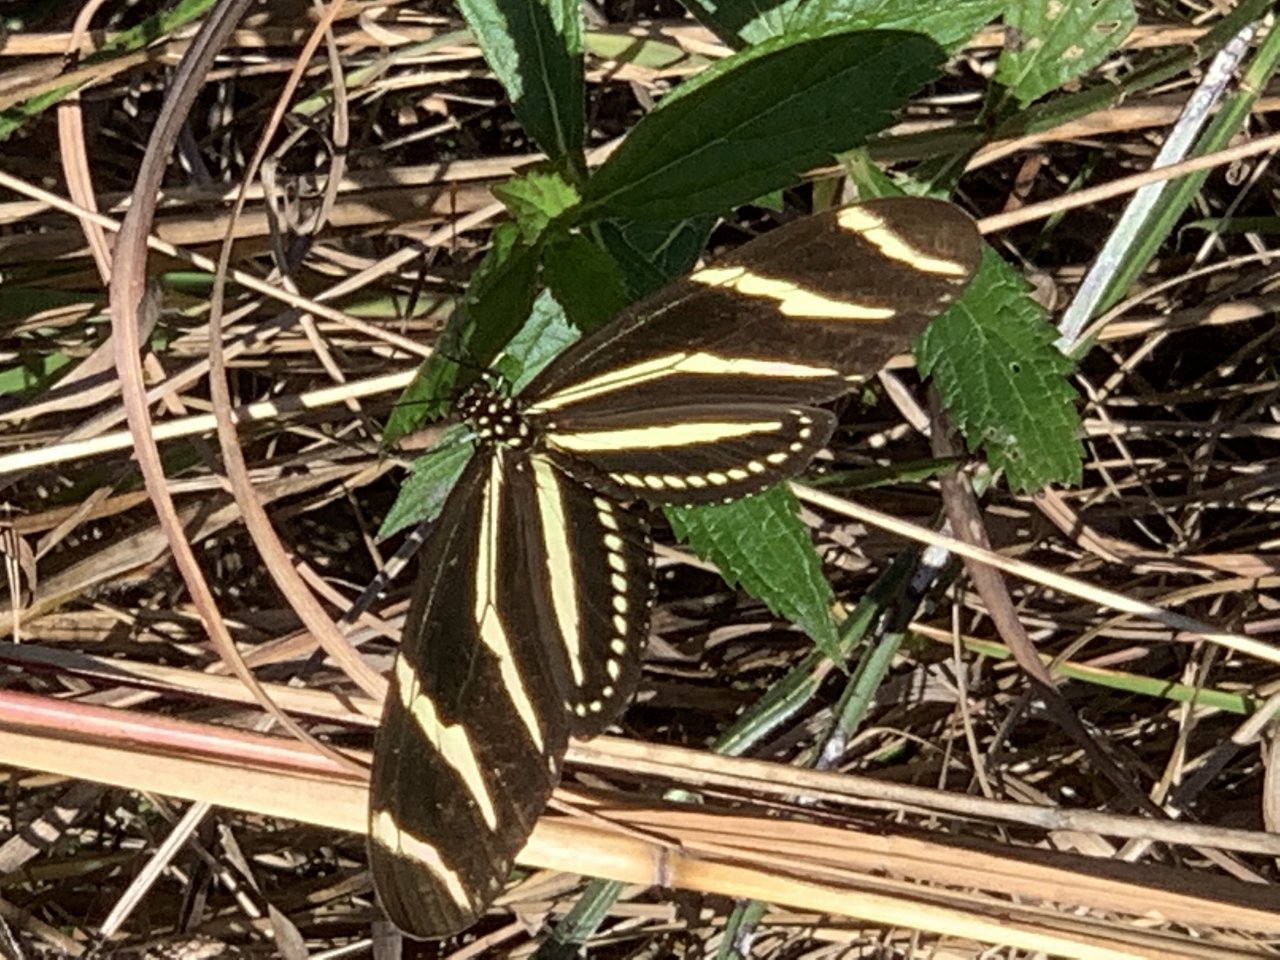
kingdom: Animalia
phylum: Arthropoda
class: Insecta
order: Lepidoptera
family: Nymphalidae
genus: Heliconius
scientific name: Heliconius charithonia
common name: Zebra Longwing
